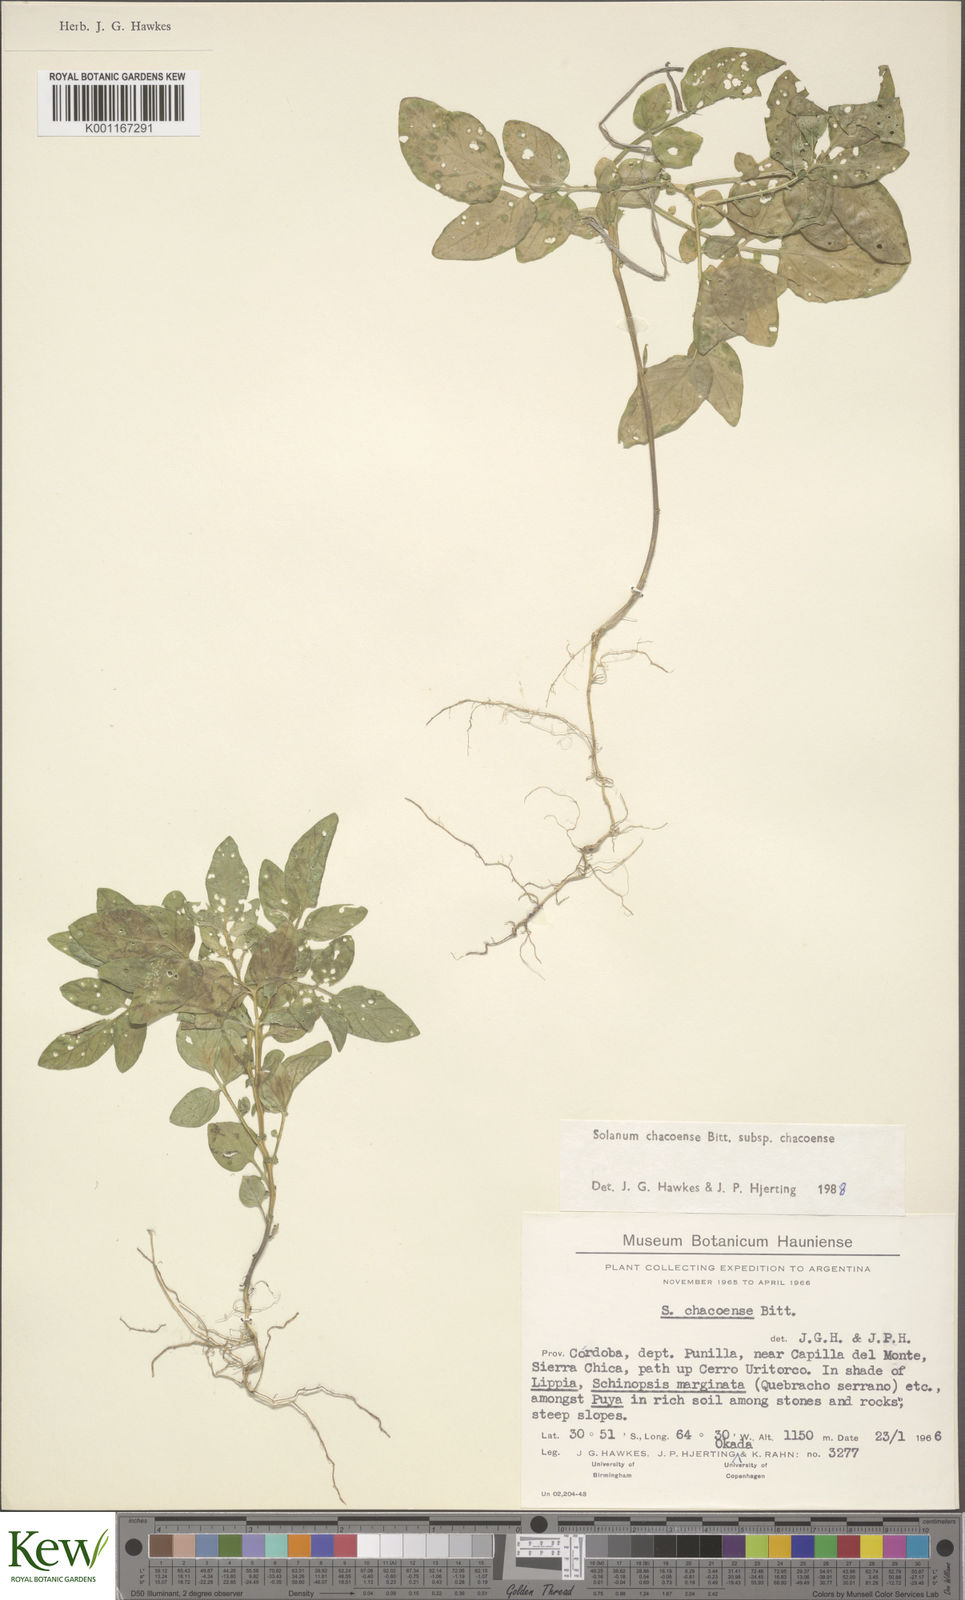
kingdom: Plantae
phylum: Tracheophyta
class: Magnoliopsida
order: Solanales
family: Solanaceae
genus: Solanum
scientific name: Solanum chacoense
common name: Chaco potato
